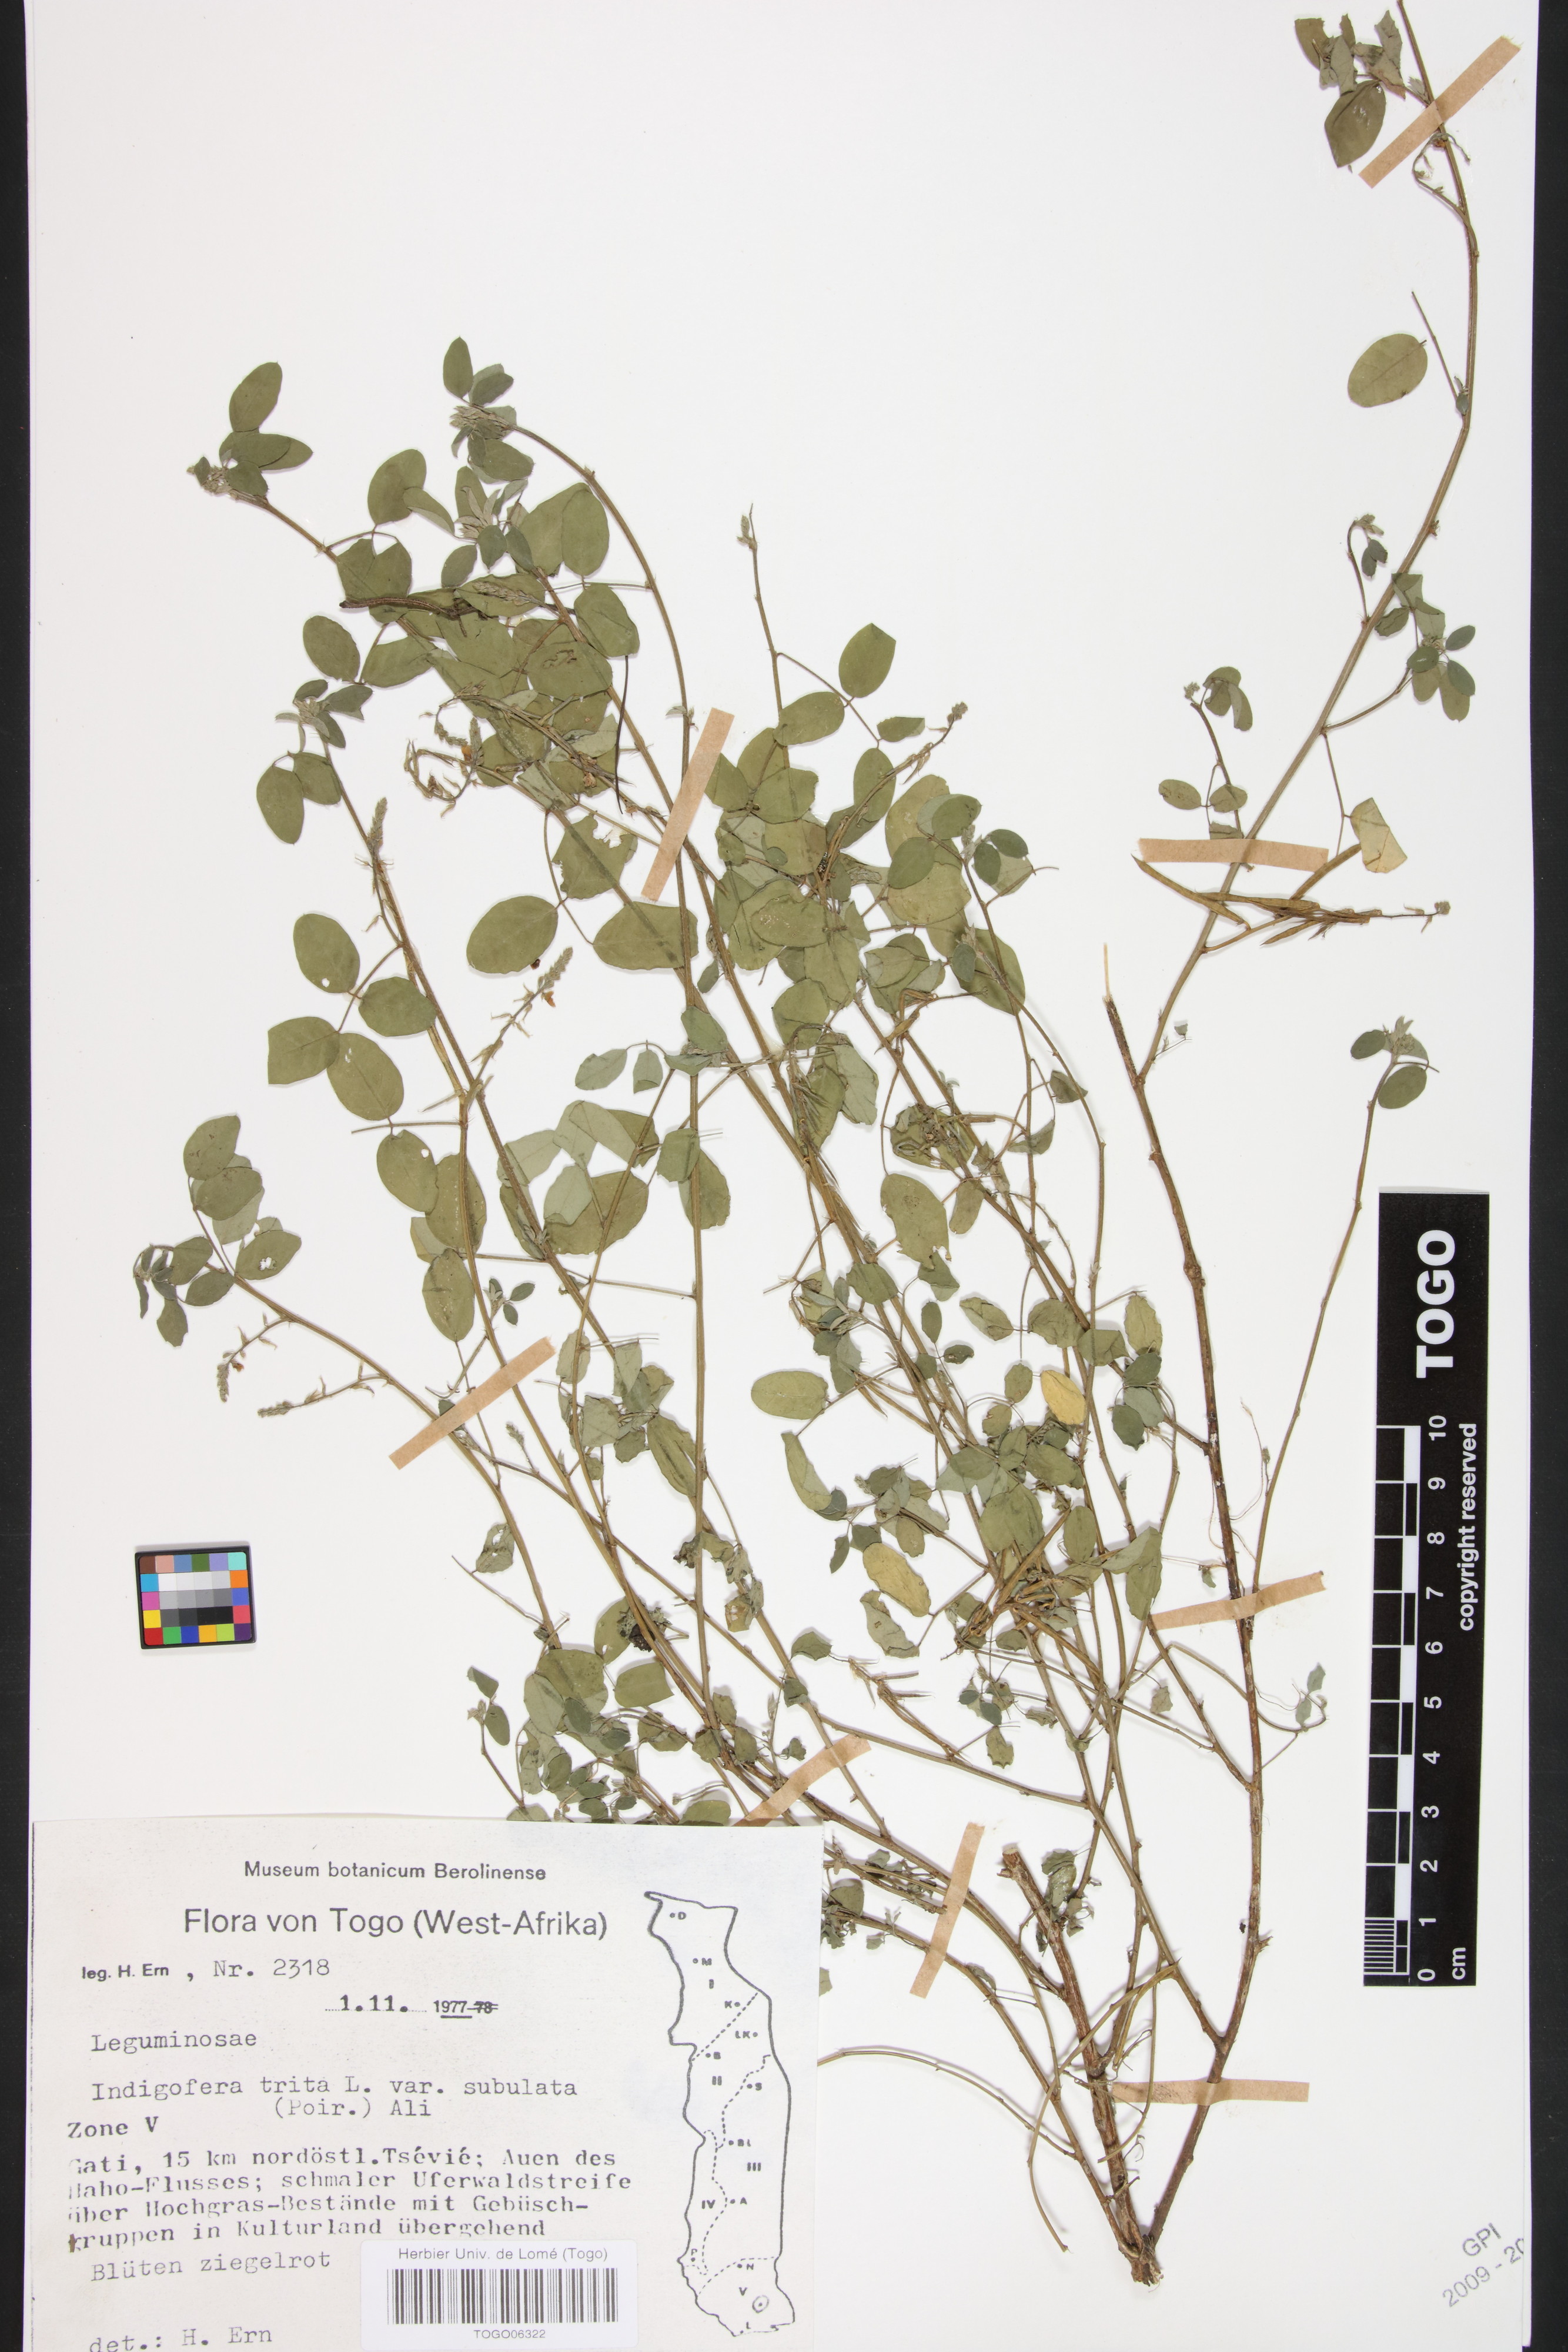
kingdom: Plantae
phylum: Tracheophyta
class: Magnoliopsida
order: Fabales
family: Fabaceae
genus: Indigofera
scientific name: Indigofera subulata
